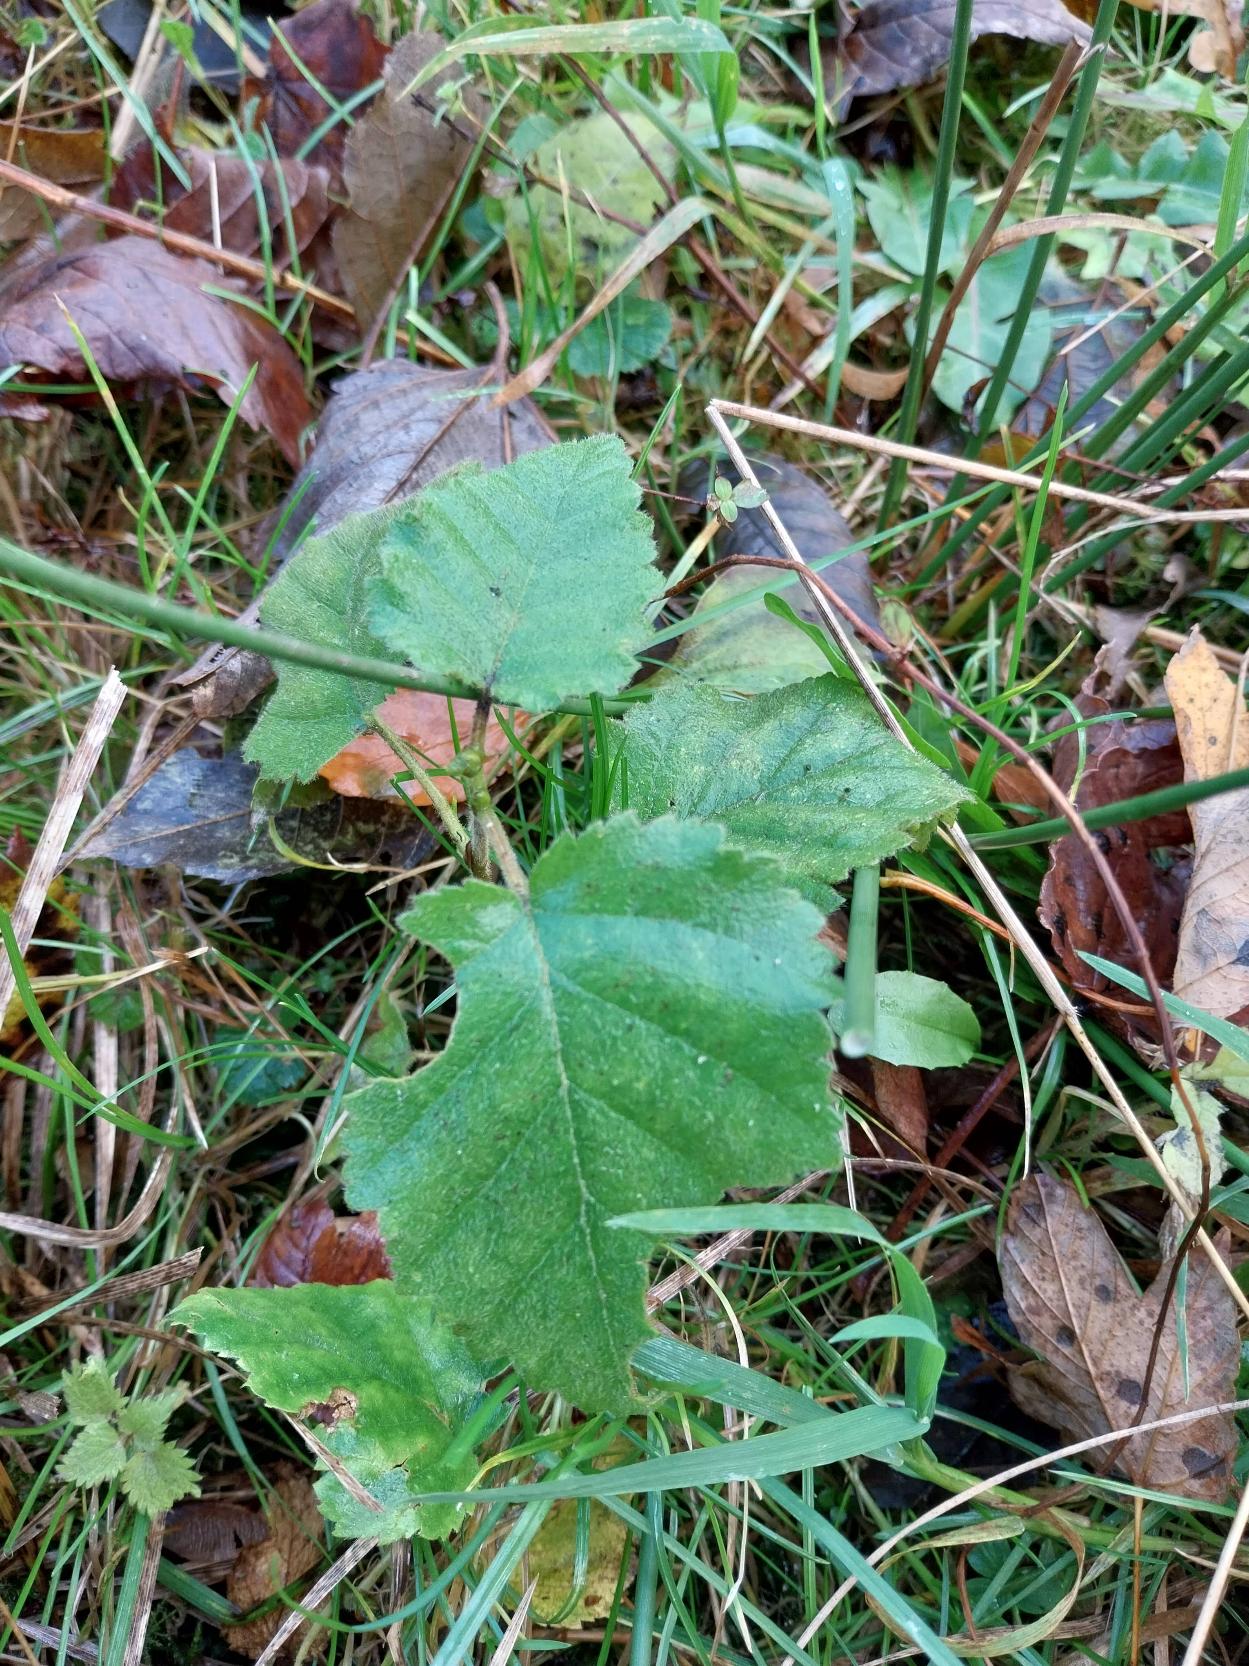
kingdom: Plantae
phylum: Tracheophyta
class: Magnoliopsida
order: Fagales
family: Betulaceae
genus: Betula
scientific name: Betula pubescens
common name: Dun-birk
